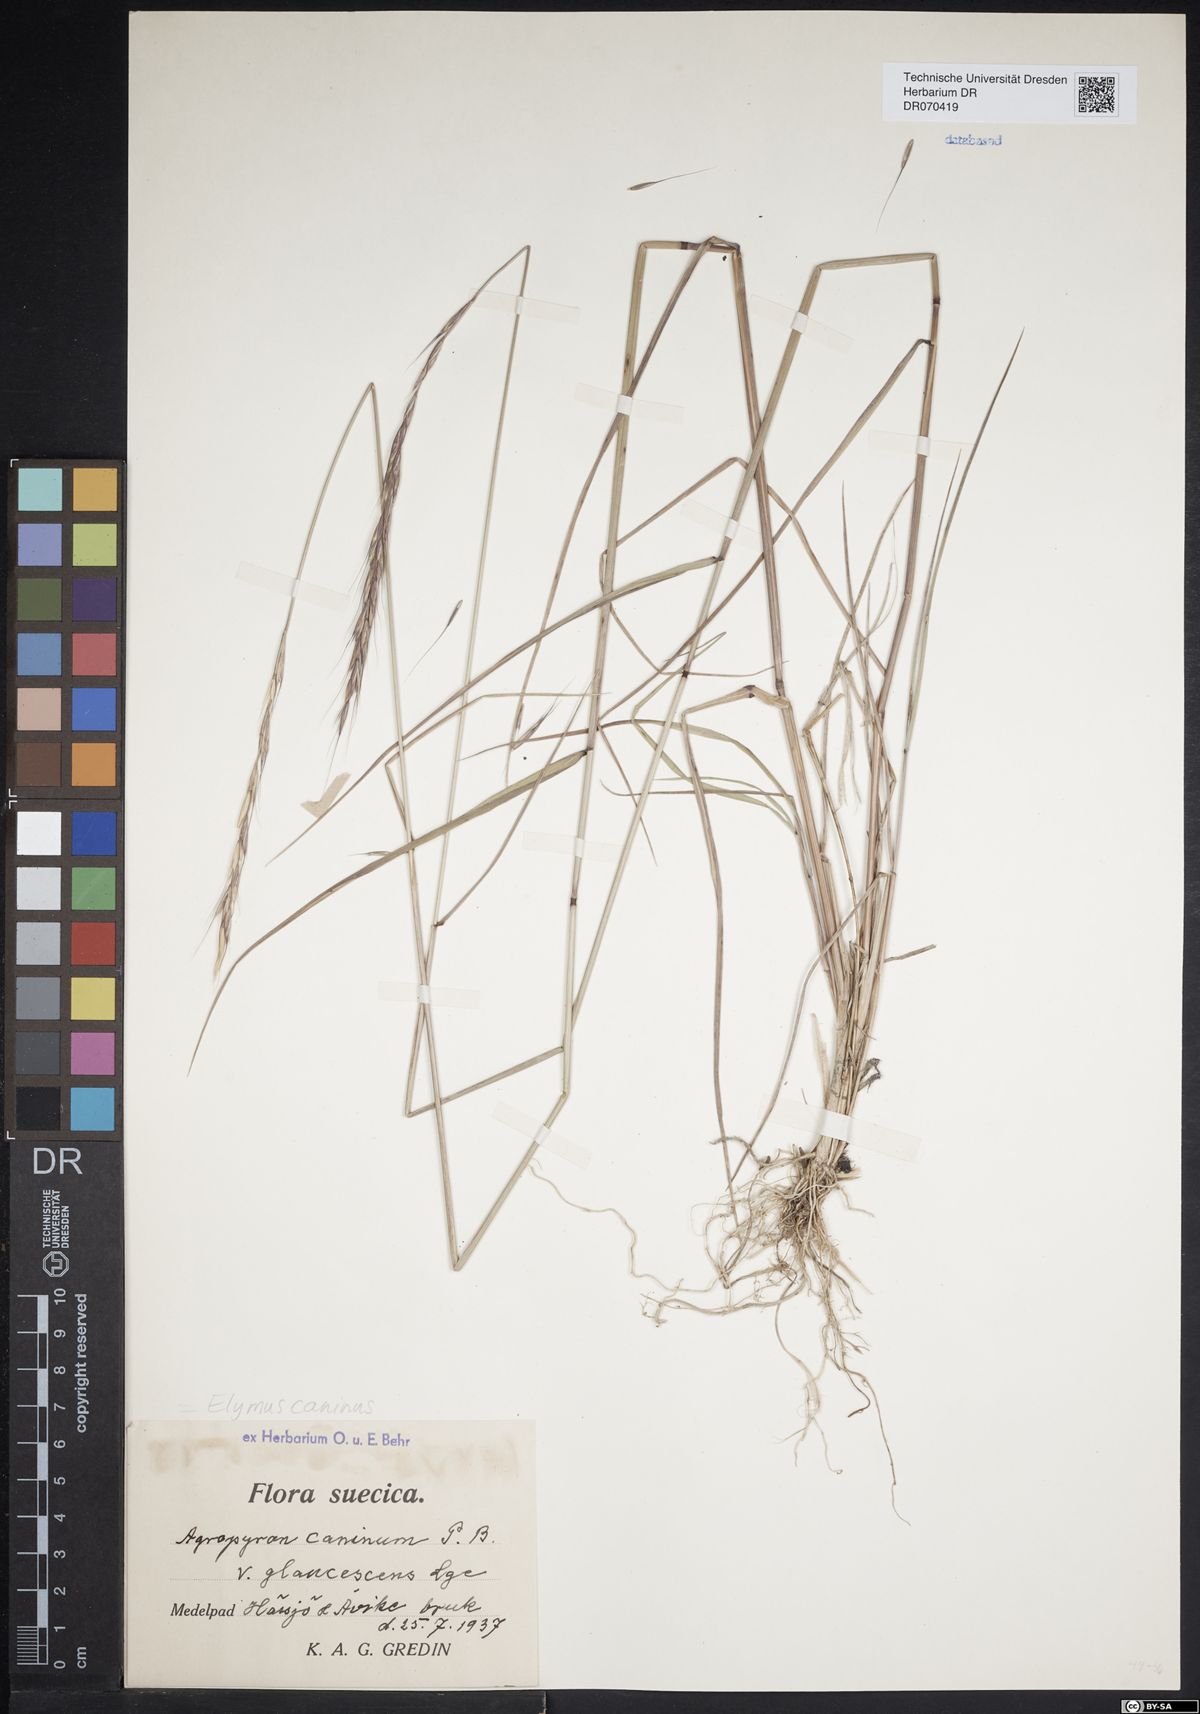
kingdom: Plantae
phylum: Tracheophyta
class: Liliopsida
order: Poales
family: Poaceae
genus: Elymus
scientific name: Elymus caninus
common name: Bearded couch
